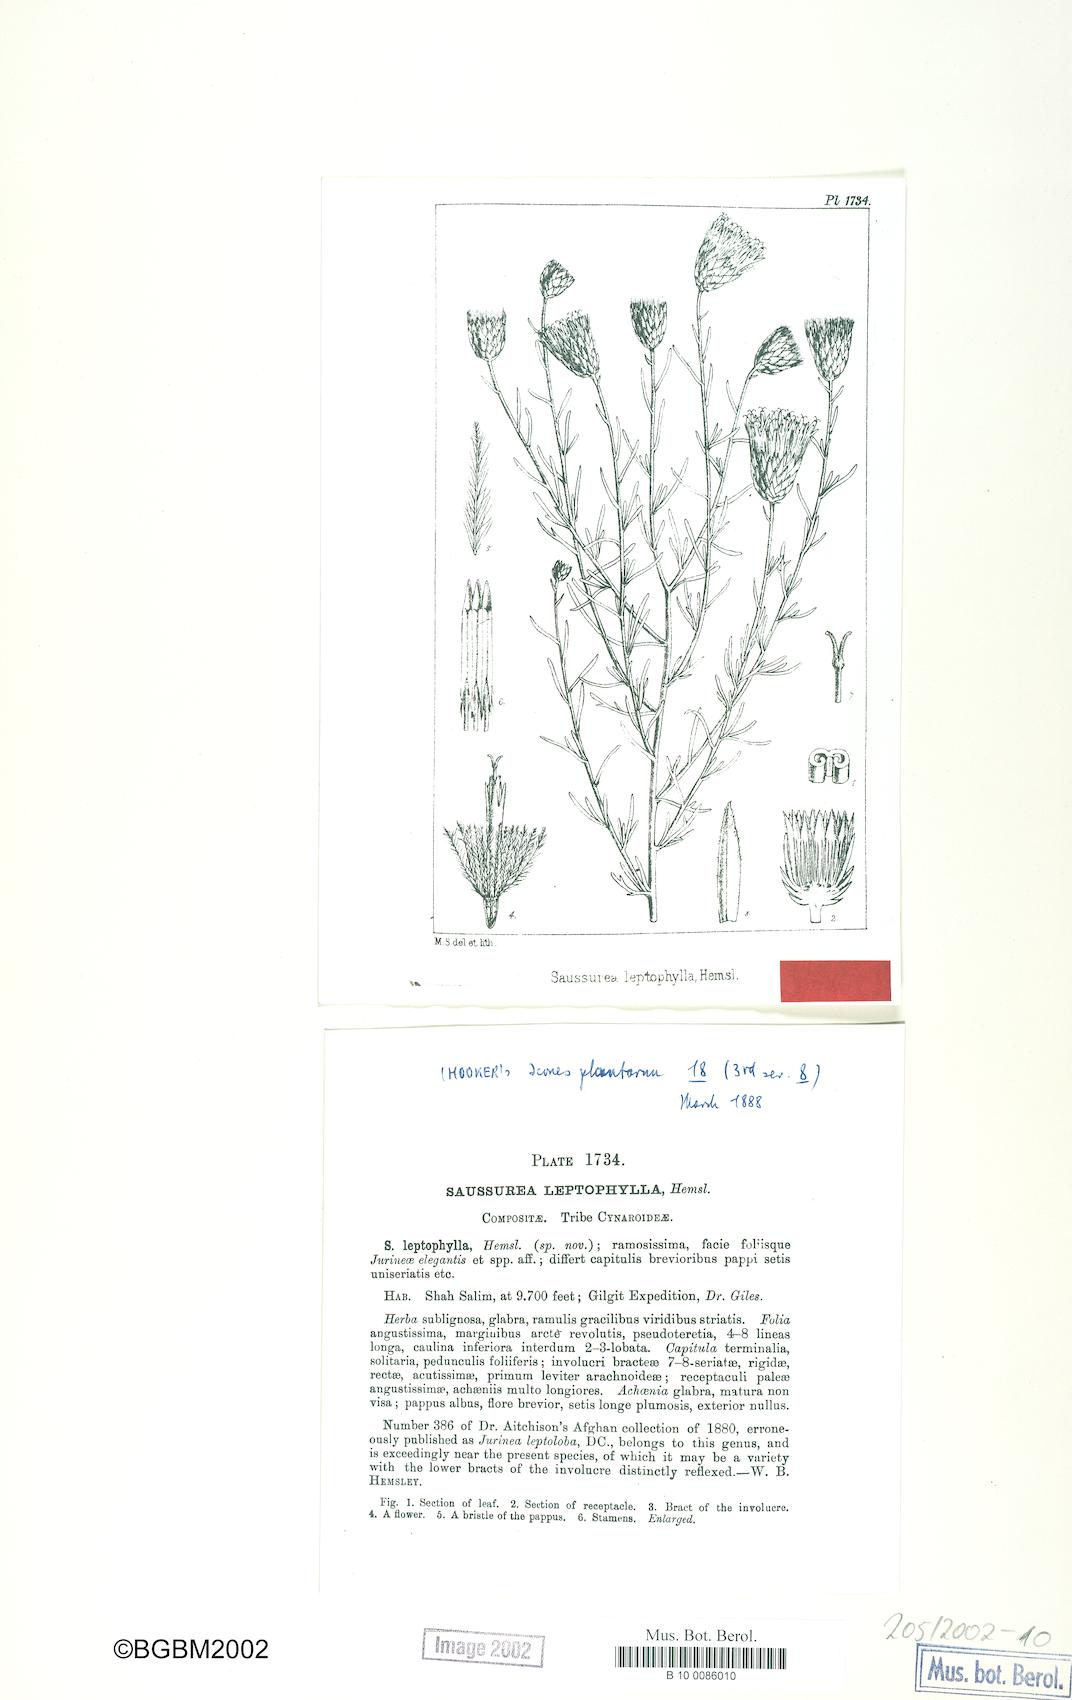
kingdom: Plantae
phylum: Tracheophyta
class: Magnoliopsida
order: Asterales
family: Asteraceae
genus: Jurinea
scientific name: Jurinea leptophylla
